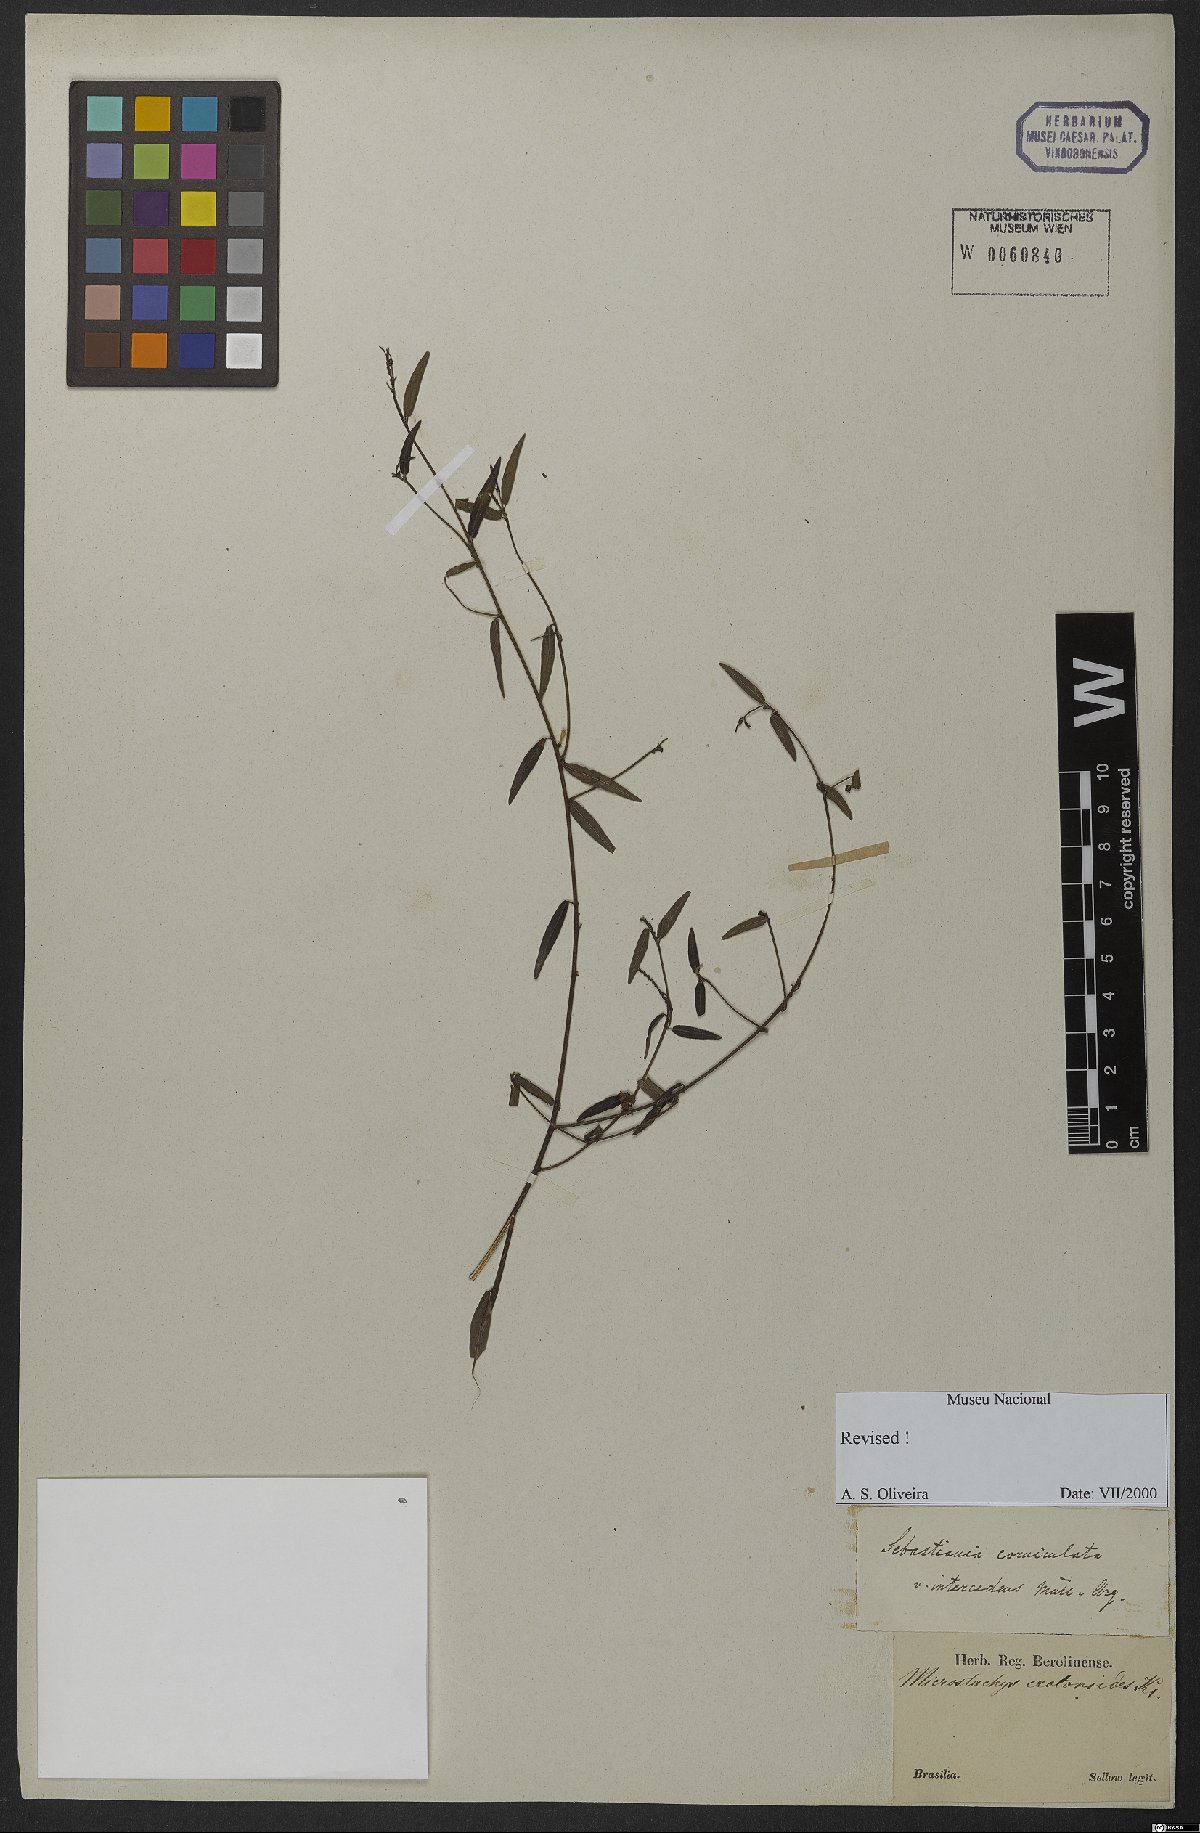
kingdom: Plantae
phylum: Tracheophyta
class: Magnoliopsida
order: Malpighiales
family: Euphorbiaceae
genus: Microstachys
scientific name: Microstachys hispida
